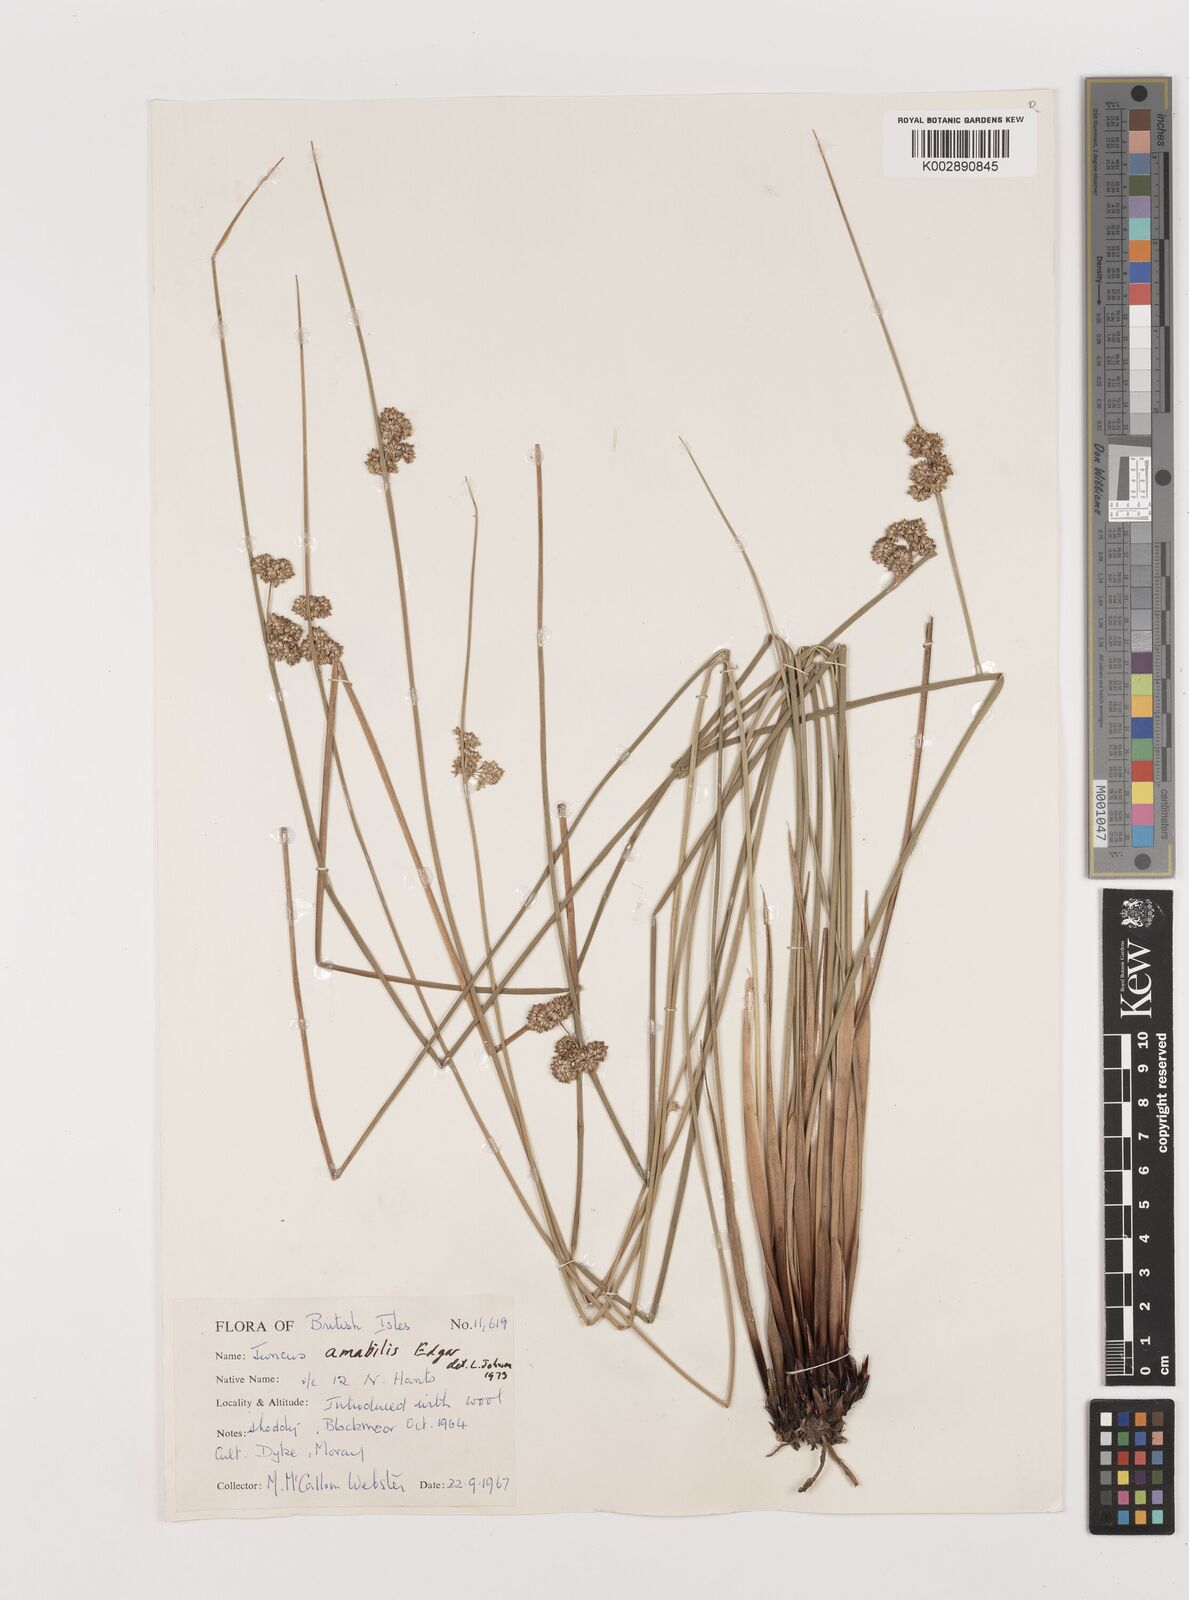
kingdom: Plantae
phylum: Tracheophyta
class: Liliopsida
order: Poales
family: Juncaceae
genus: Juncus
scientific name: Juncus amabilis
